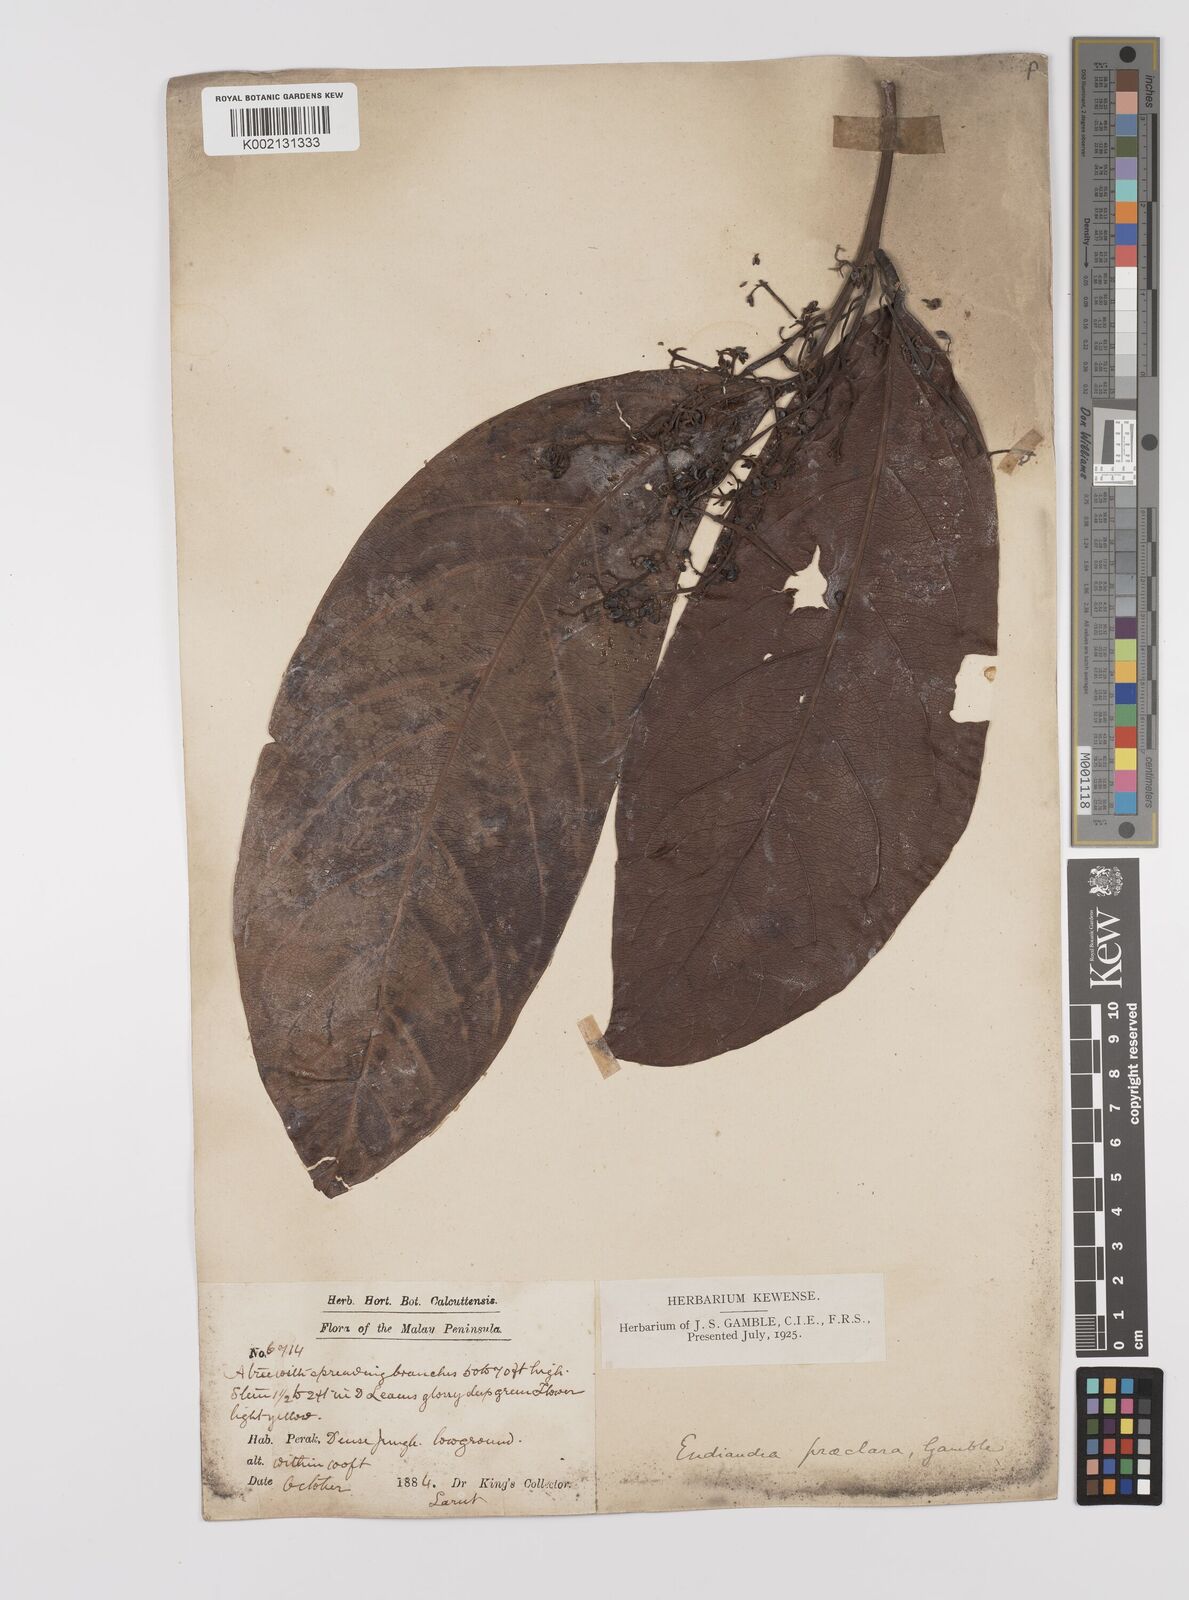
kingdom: Plantae
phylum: Tracheophyta
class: Magnoliopsida
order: Laurales
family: Lauraceae
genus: Endiandra
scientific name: Endiandra praeclara
